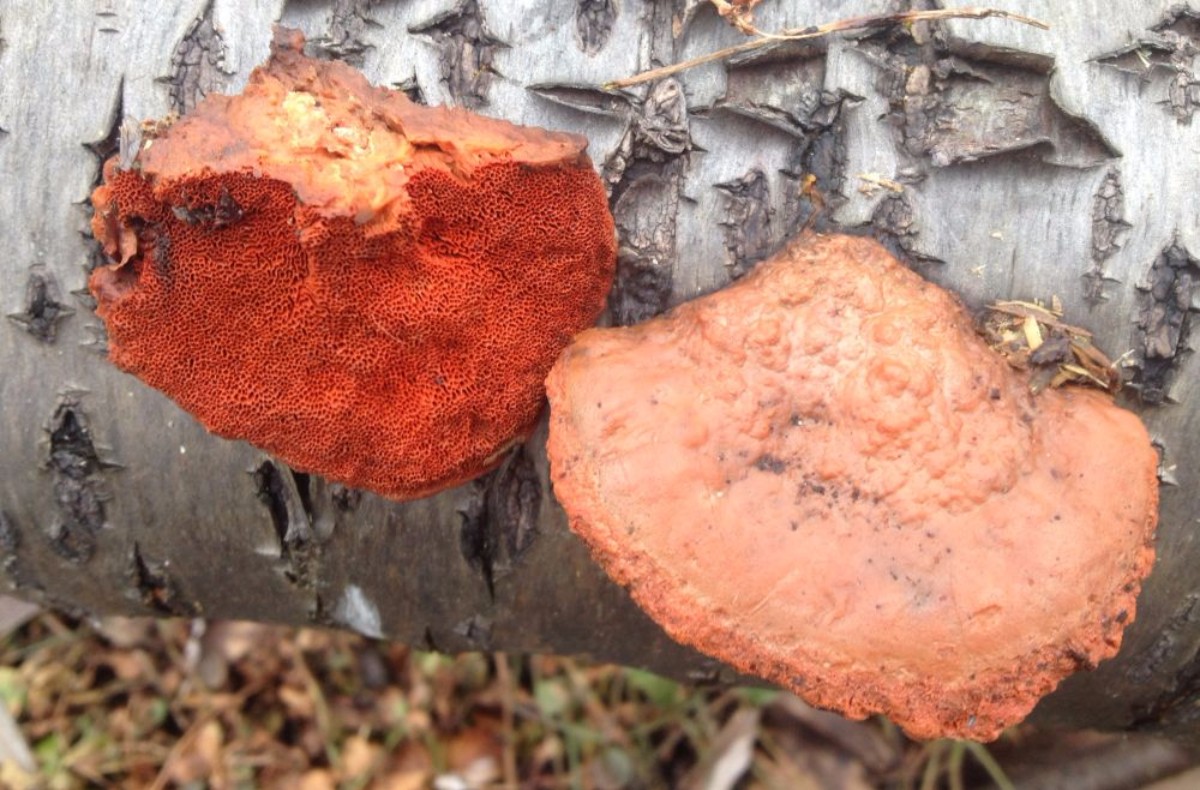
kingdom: Fungi
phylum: Basidiomycota
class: Agaricomycetes
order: Polyporales
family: Polyporaceae
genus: Trametes
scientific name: Trametes cinnabarina
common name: cinnoberporesvamp
